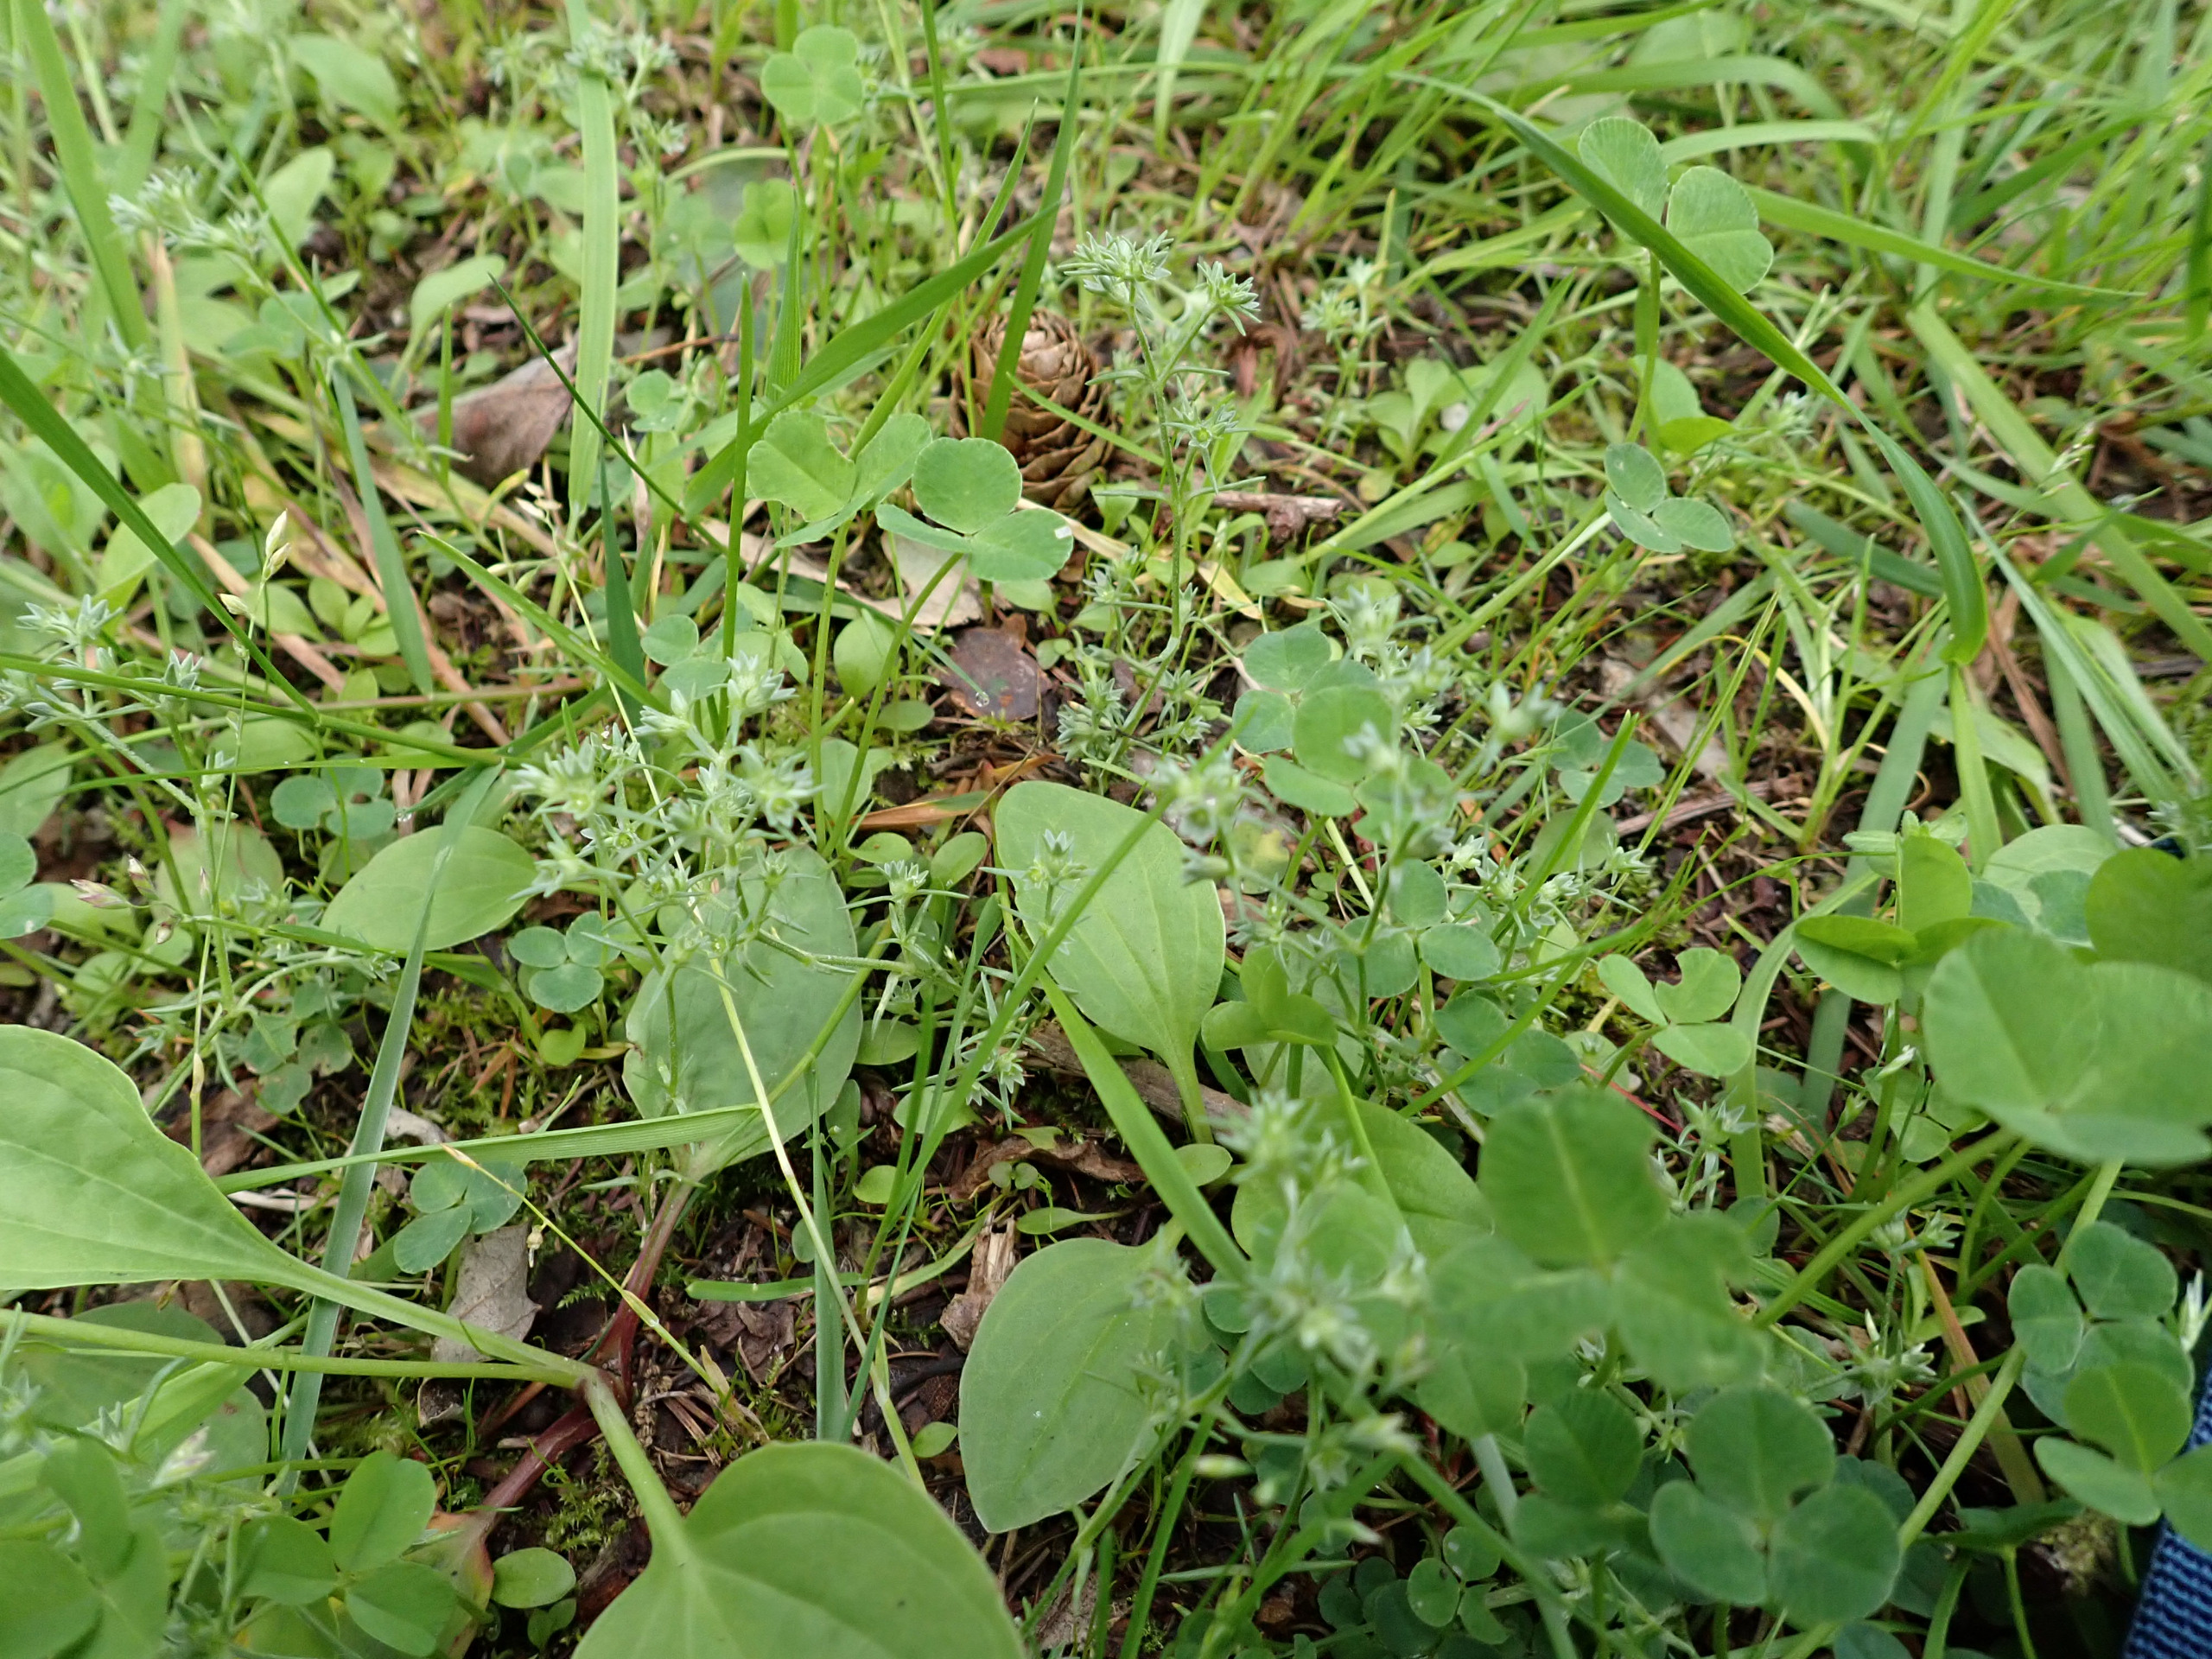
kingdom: Plantae
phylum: Tracheophyta
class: Magnoliopsida
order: Caryophyllales
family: Caryophyllaceae
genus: Scleranthus
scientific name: Scleranthus annuus
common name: Enårig knavel (underart)
